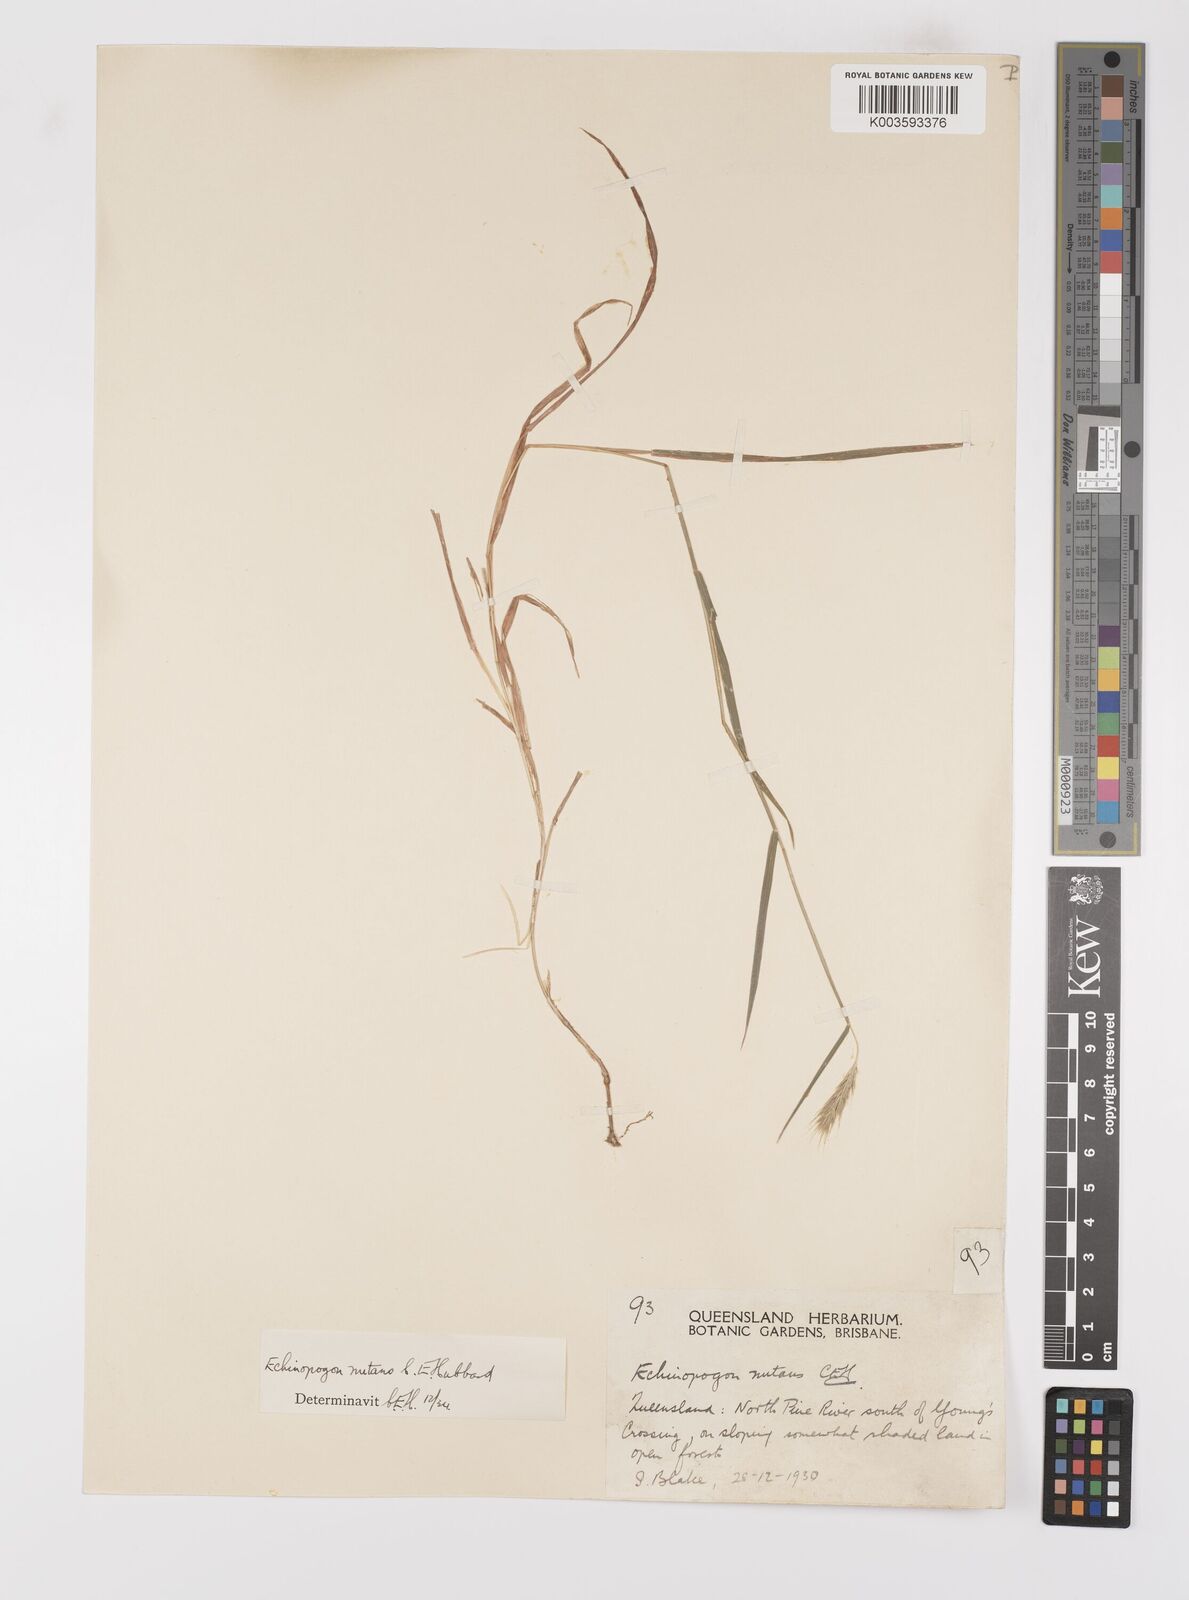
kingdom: Plantae
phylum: Tracheophyta
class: Liliopsida
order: Poales
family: Poaceae
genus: Echinopogon
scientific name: Echinopogon nutans
